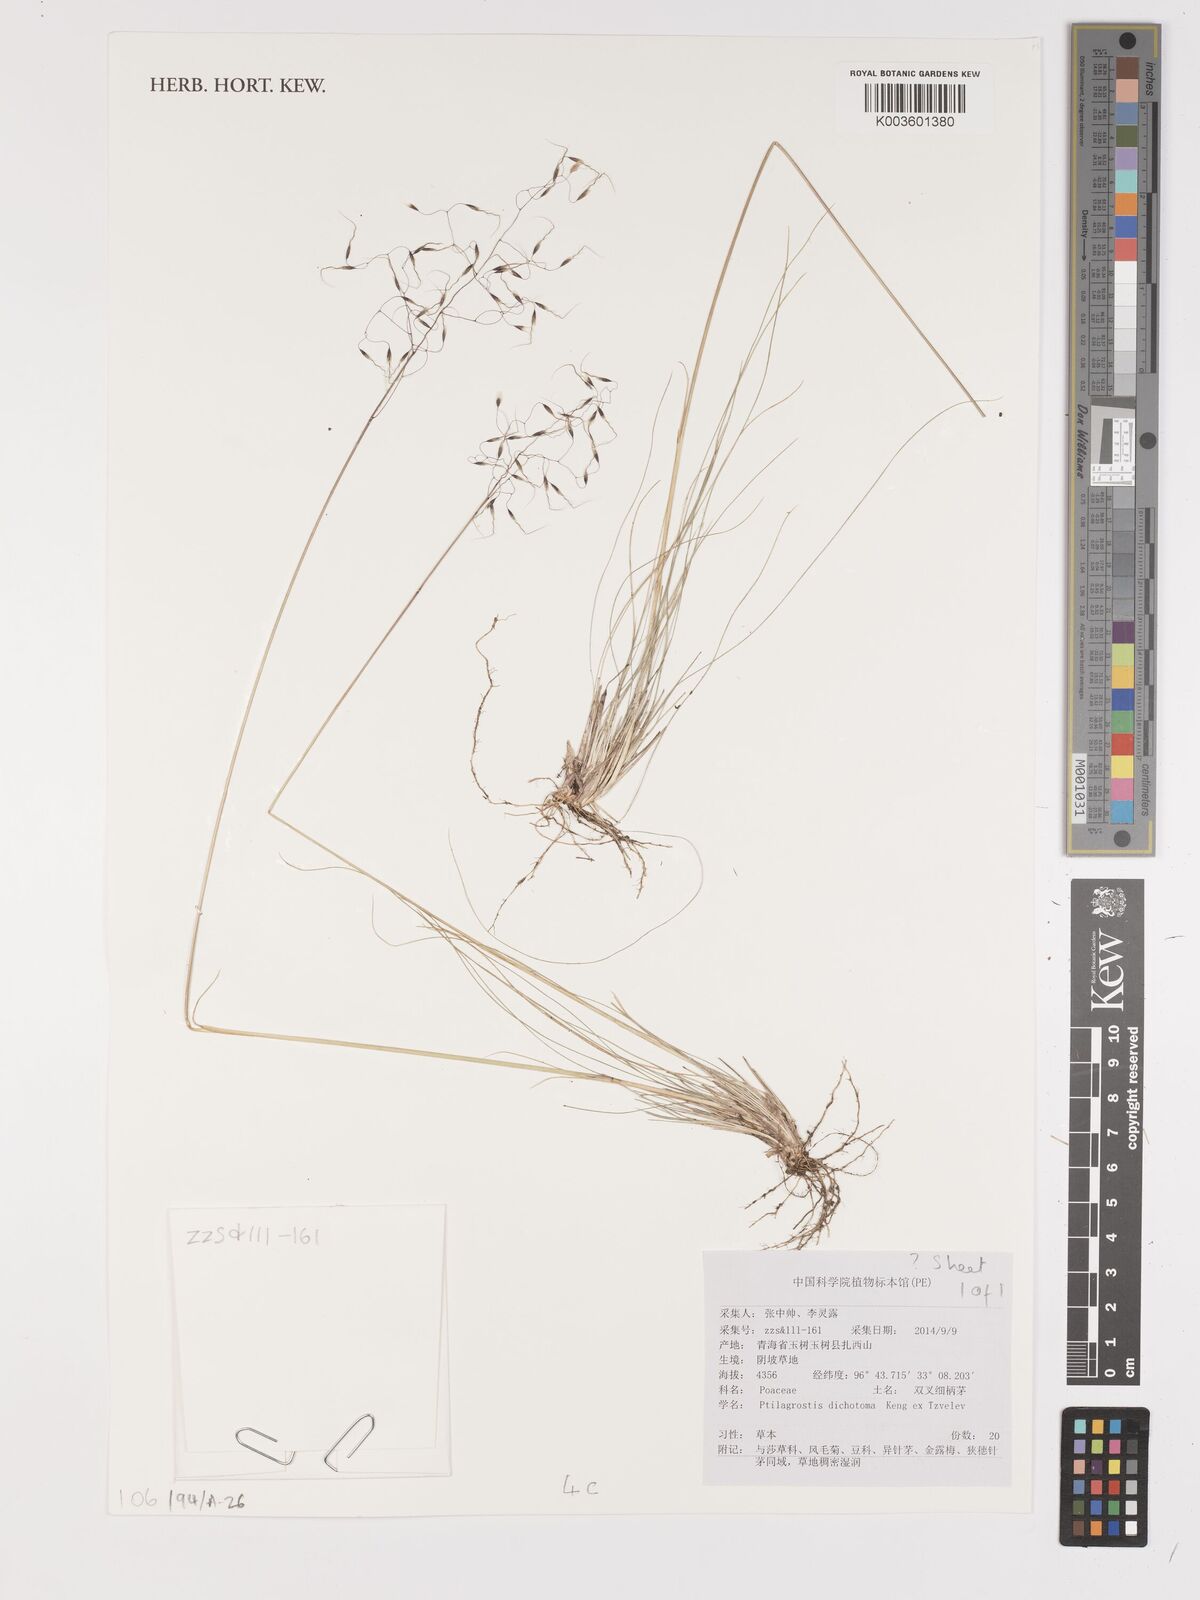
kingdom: Plantae
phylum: Tracheophyta
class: Liliopsida
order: Poales
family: Poaceae
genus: Stipa
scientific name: Stipa
